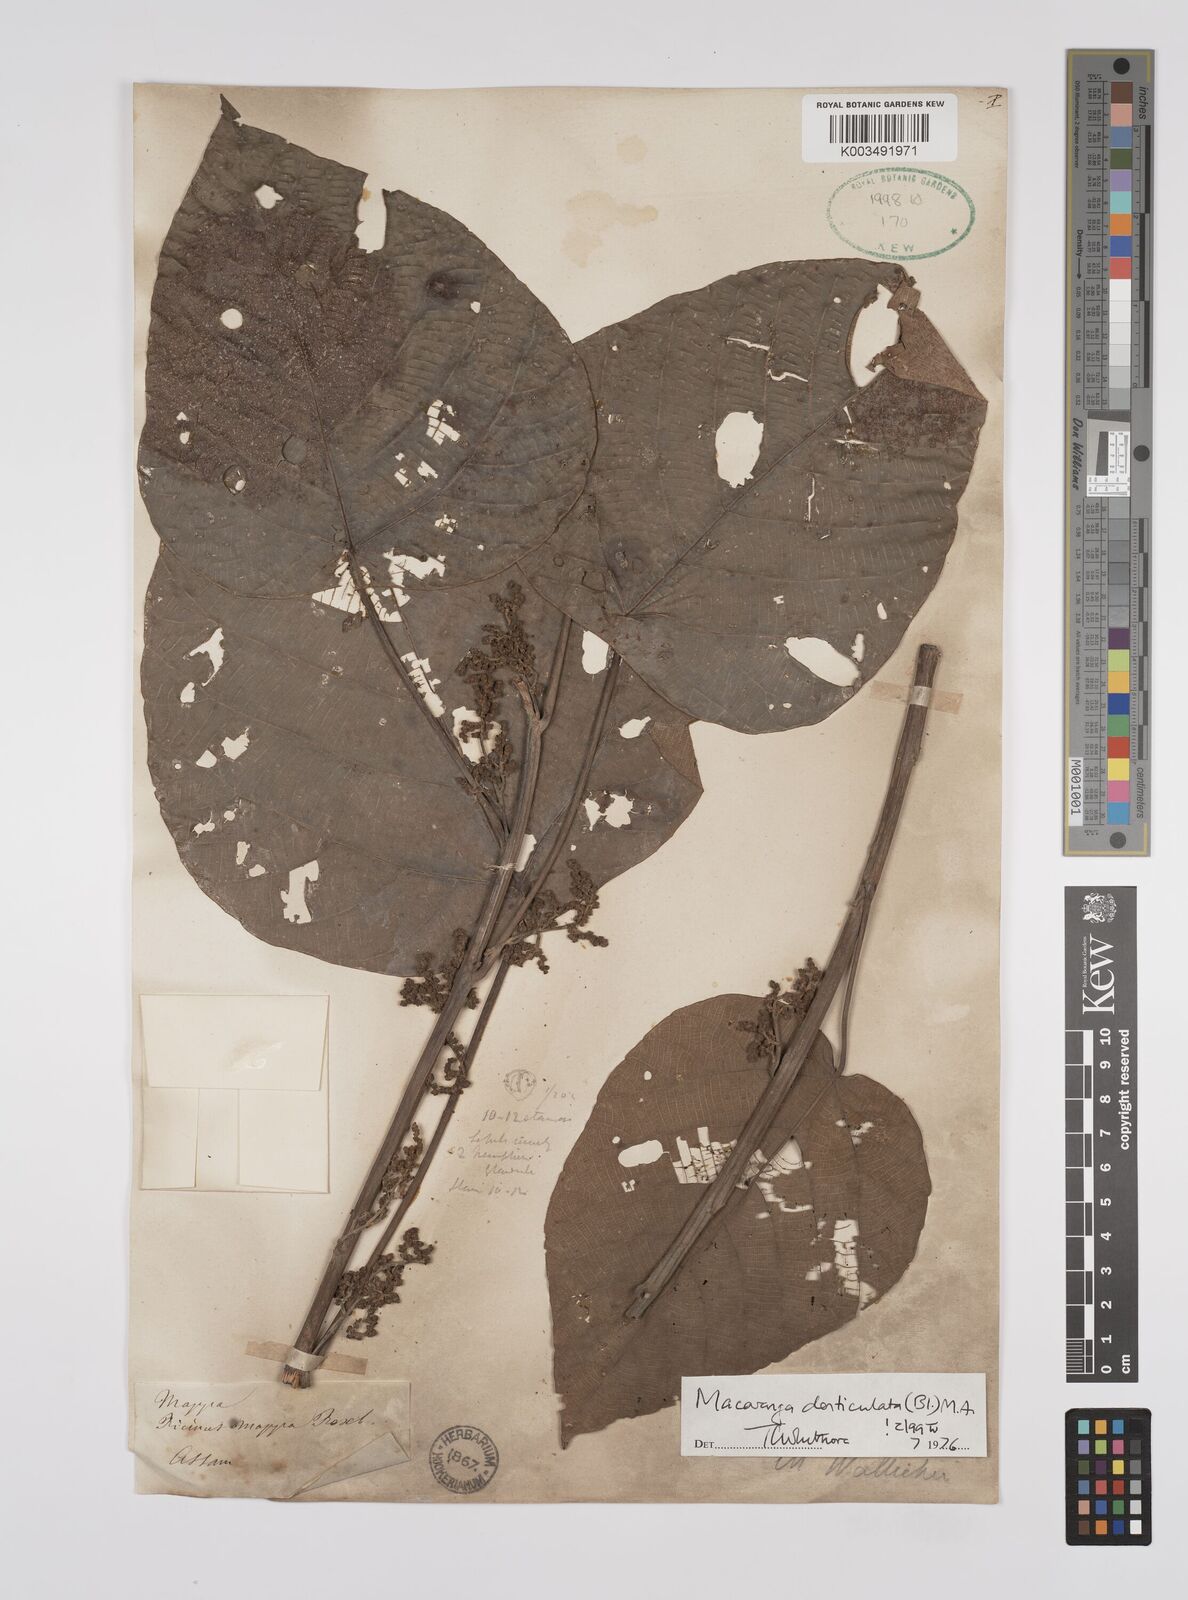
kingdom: Plantae
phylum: Tracheophyta
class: Magnoliopsida
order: Malpighiales
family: Euphorbiaceae
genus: Macaranga
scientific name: Macaranga denticulata
